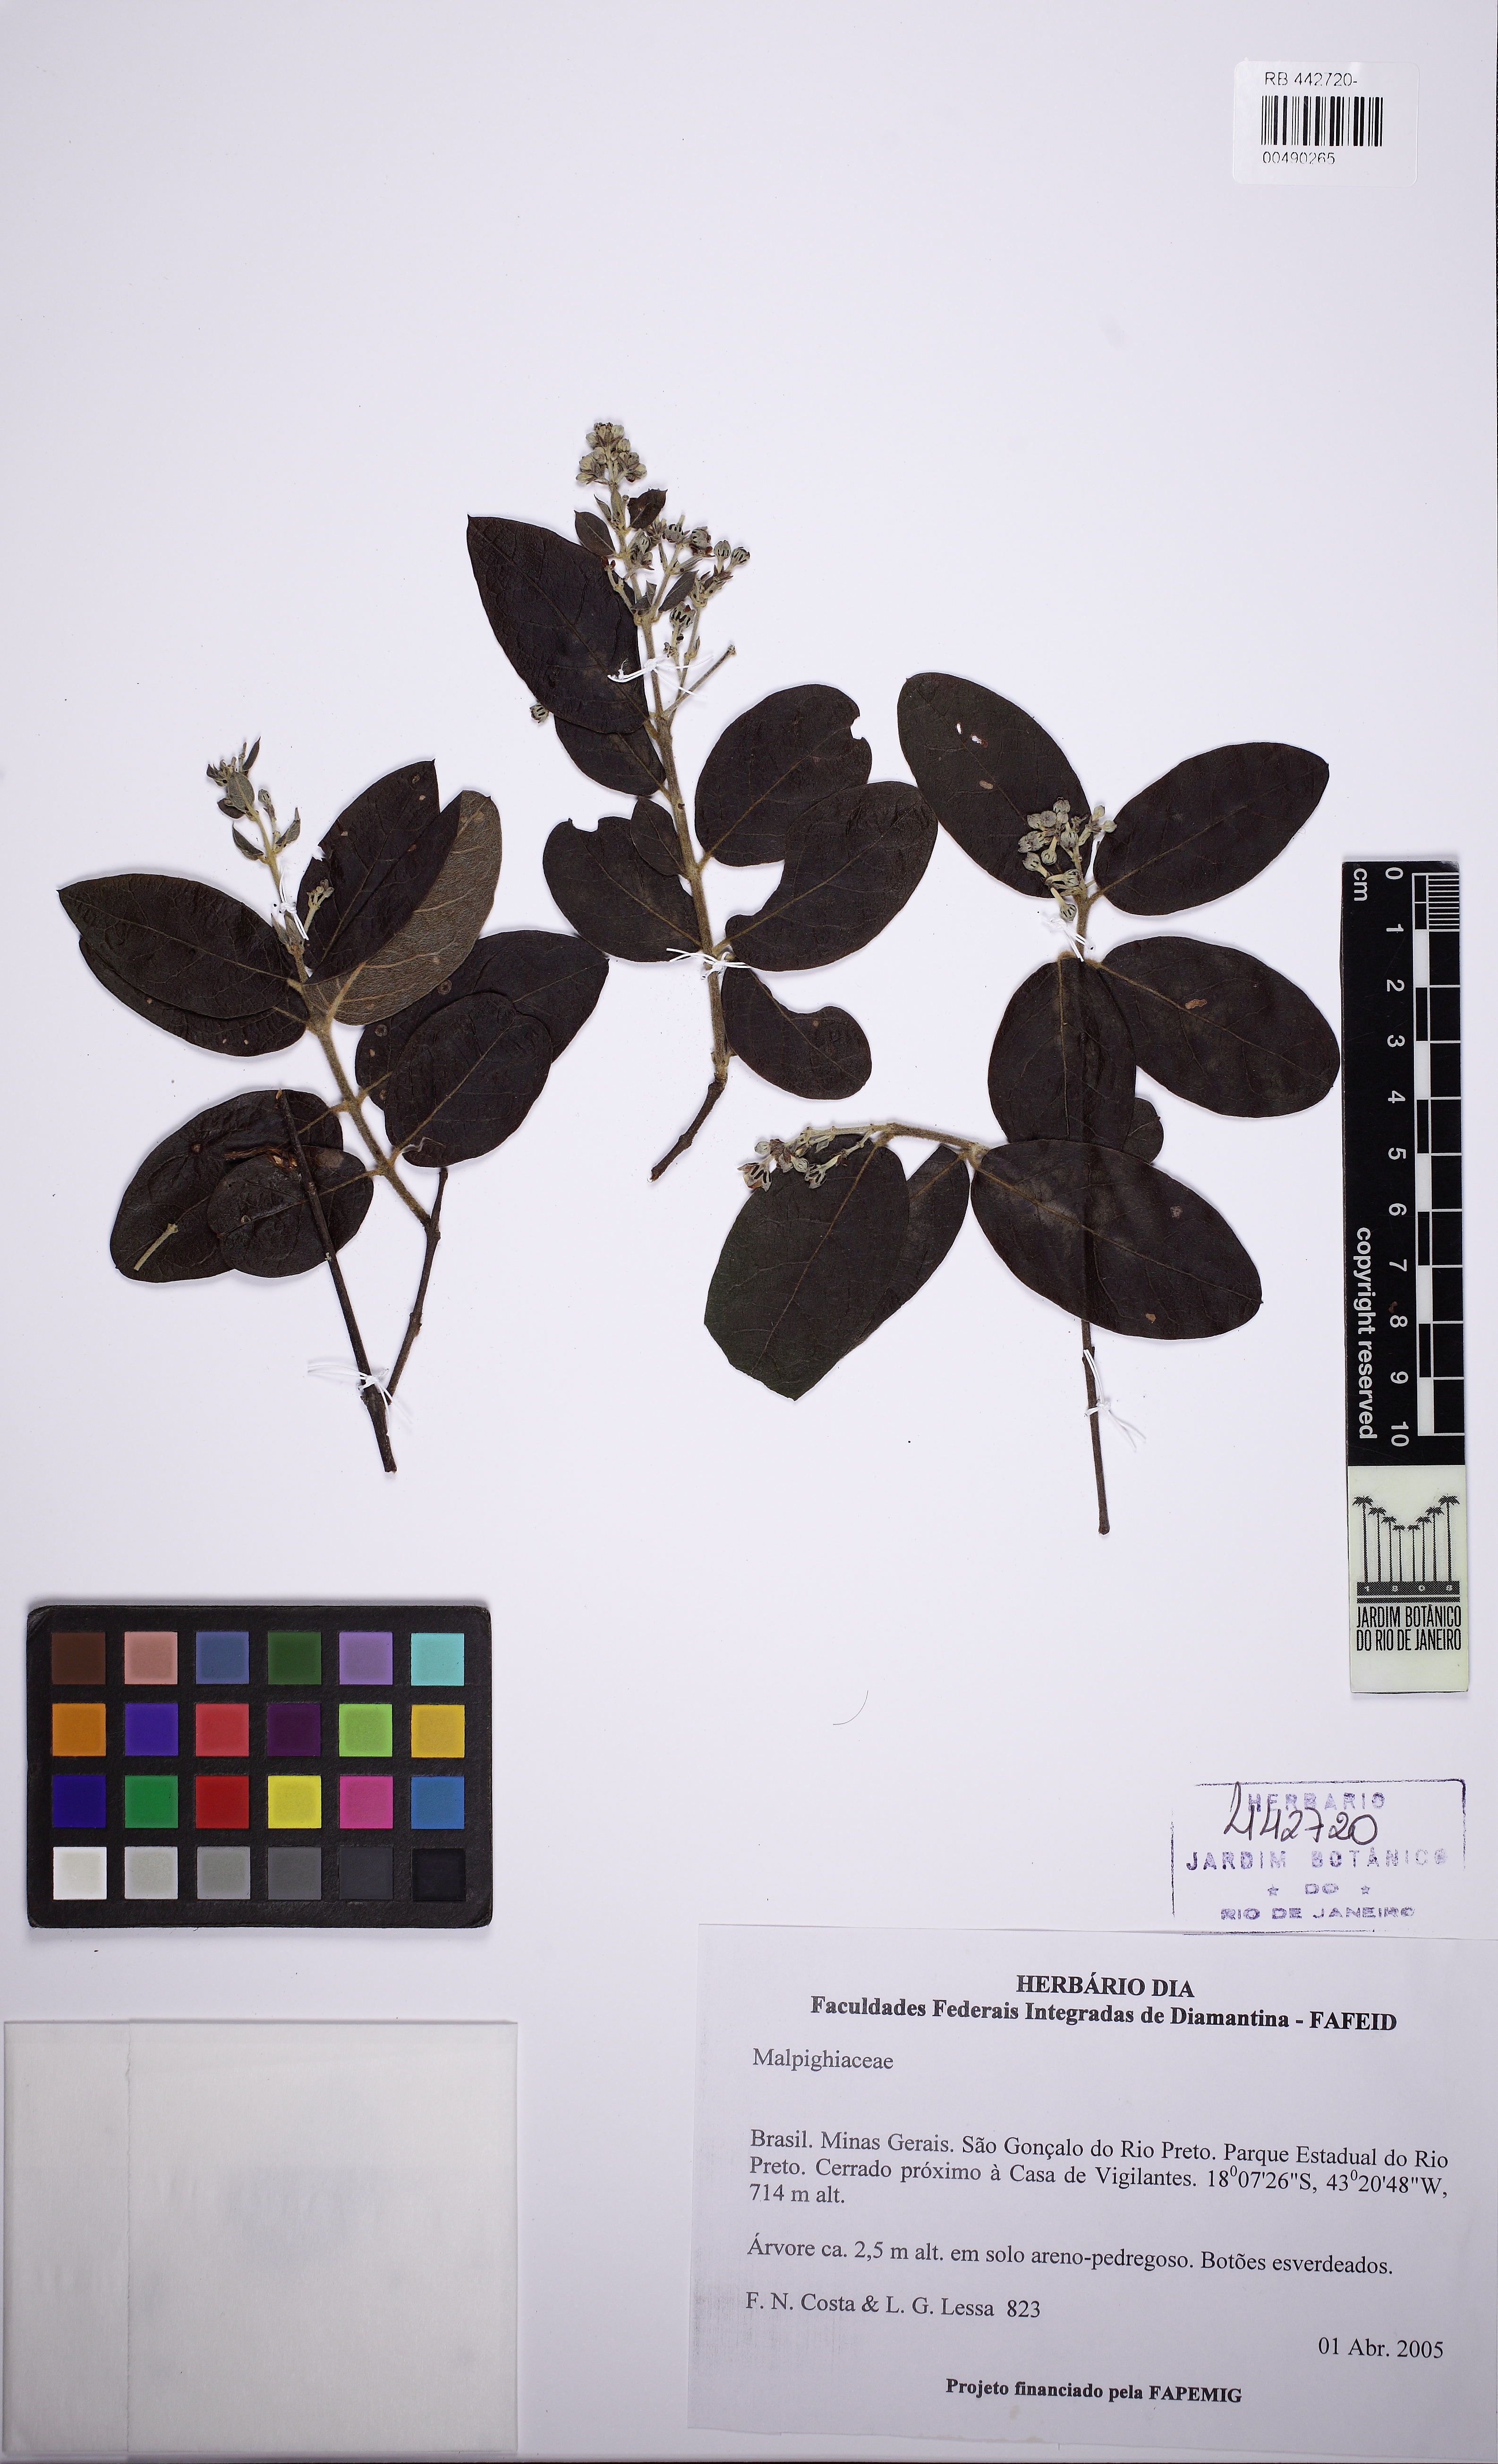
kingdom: Plantae
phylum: Tracheophyta
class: Magnoliopsida
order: Malpighiales
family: Malpighiaceae
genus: Banisteriopsis
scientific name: Banisteriopsis
